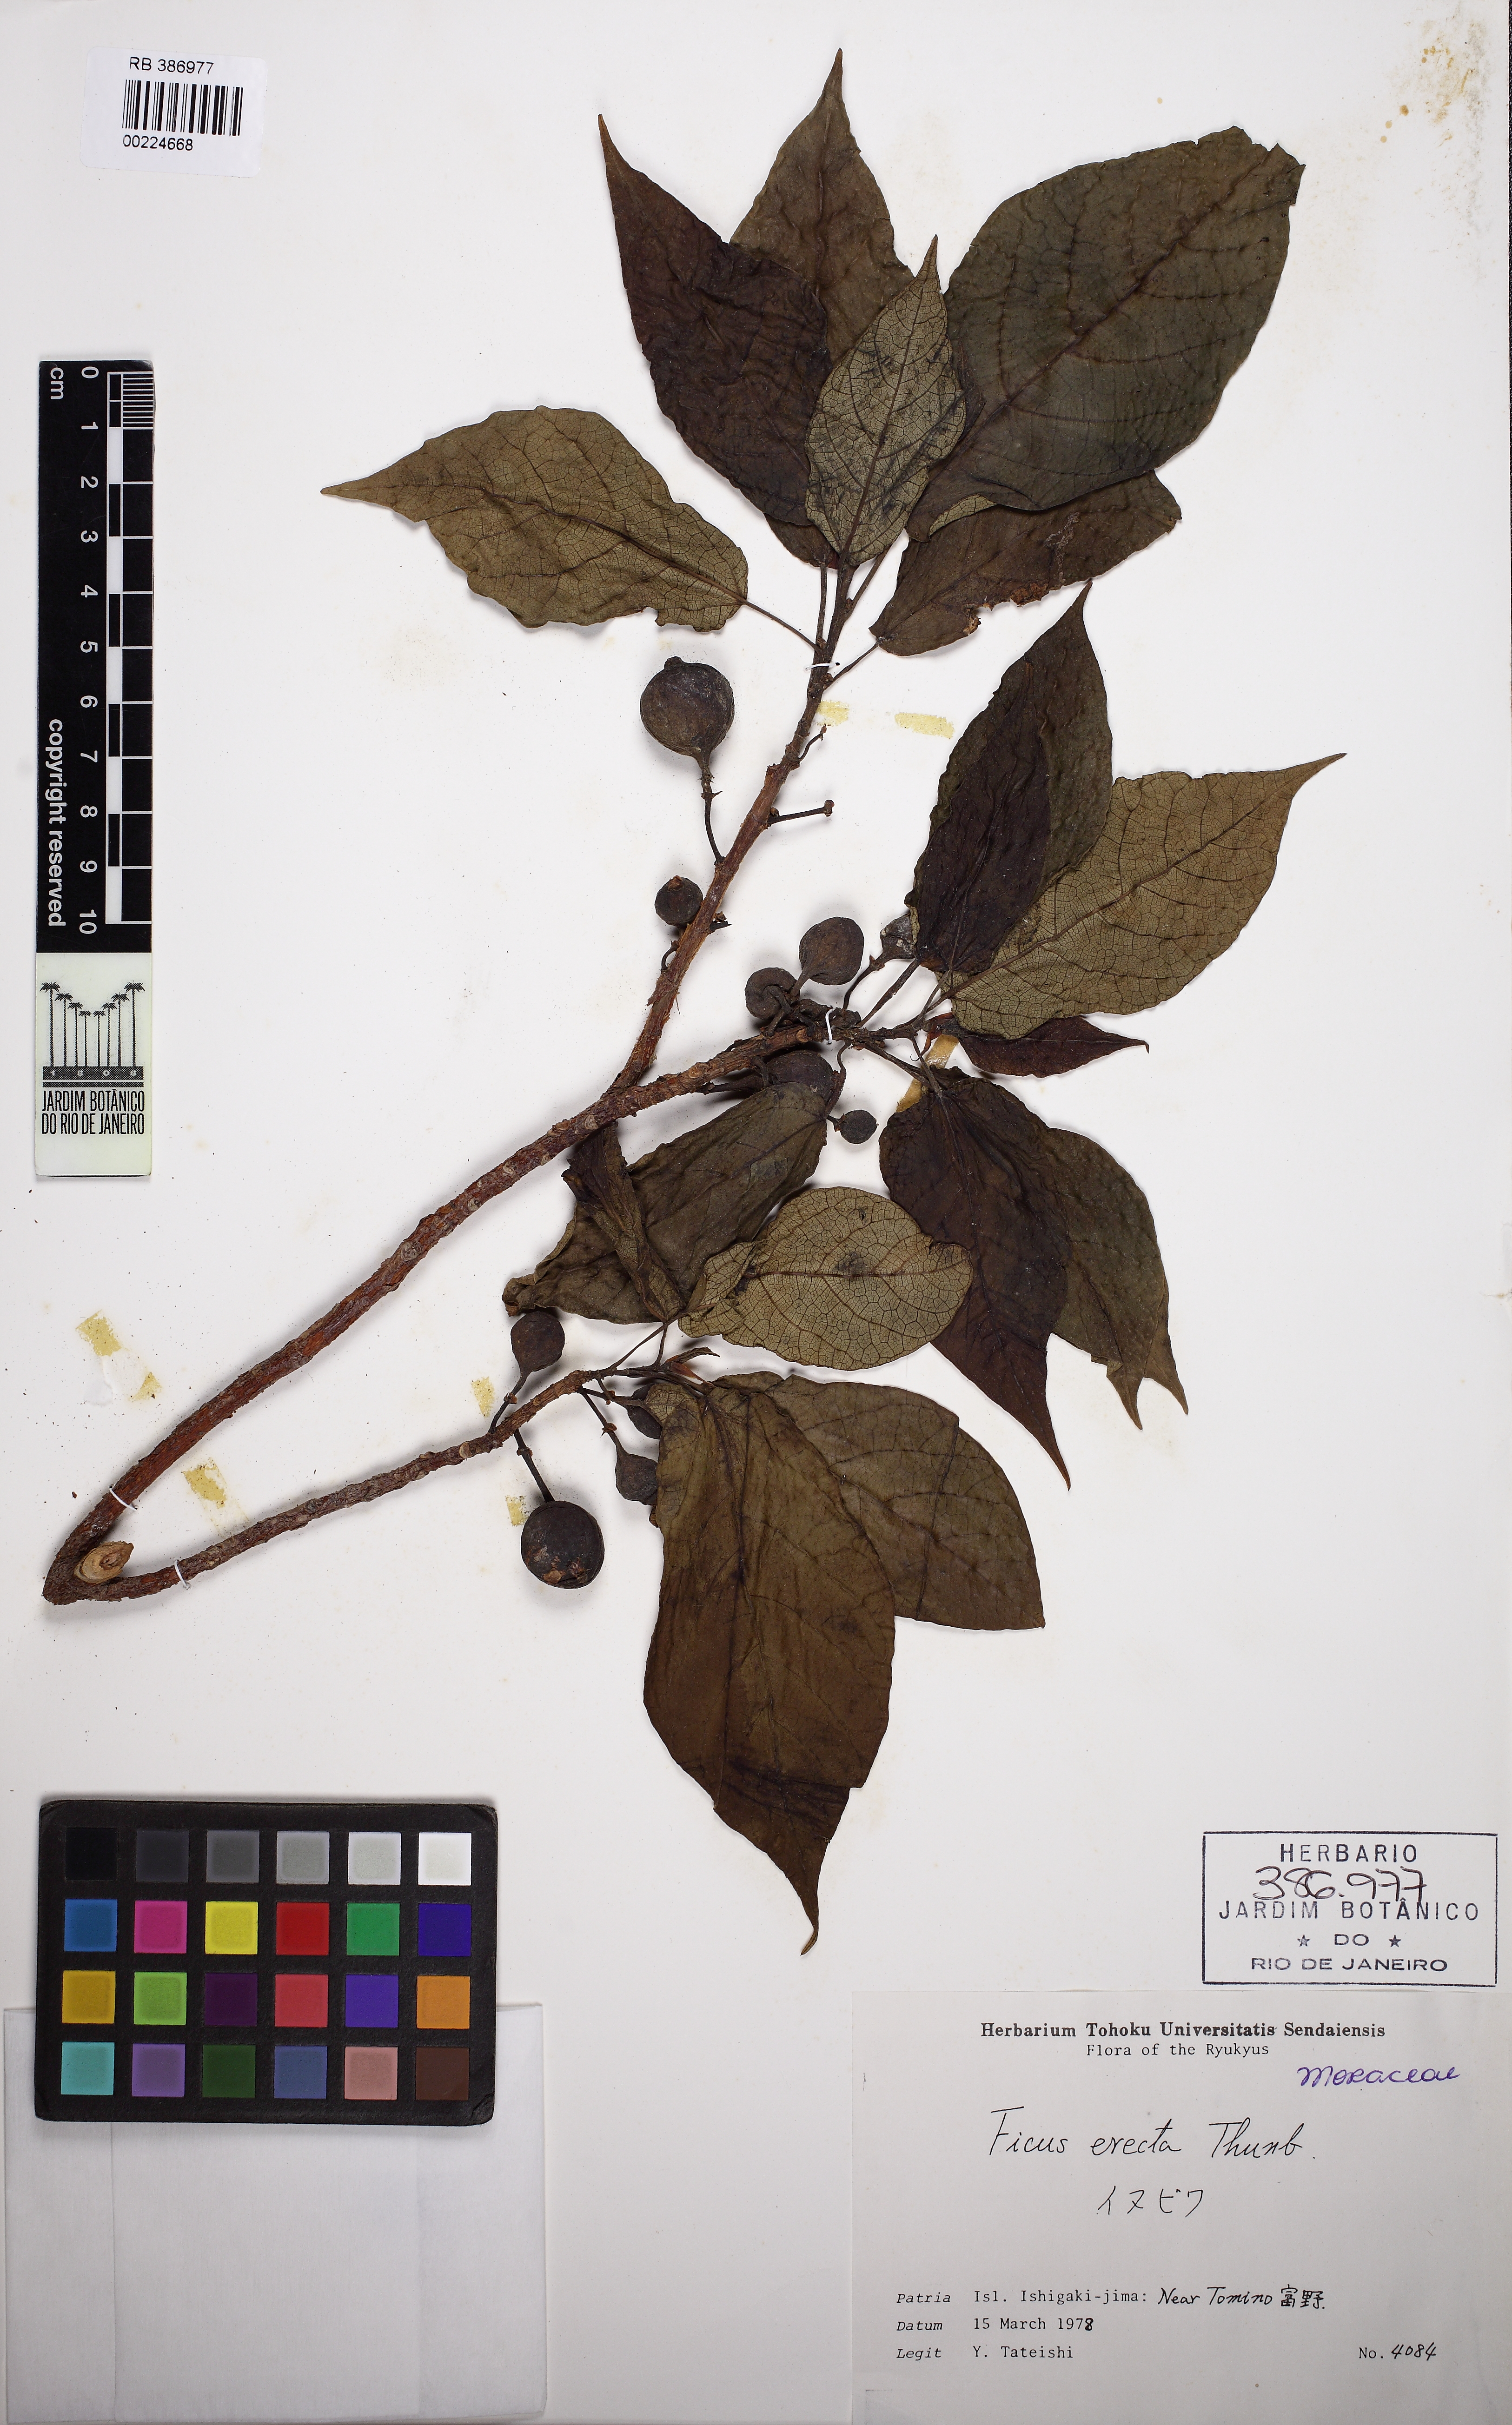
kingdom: Plantae
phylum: Tracheophyta
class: Magnoliopsida
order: Rosales
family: Moraceae
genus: Ficus
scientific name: Ficus erecta
